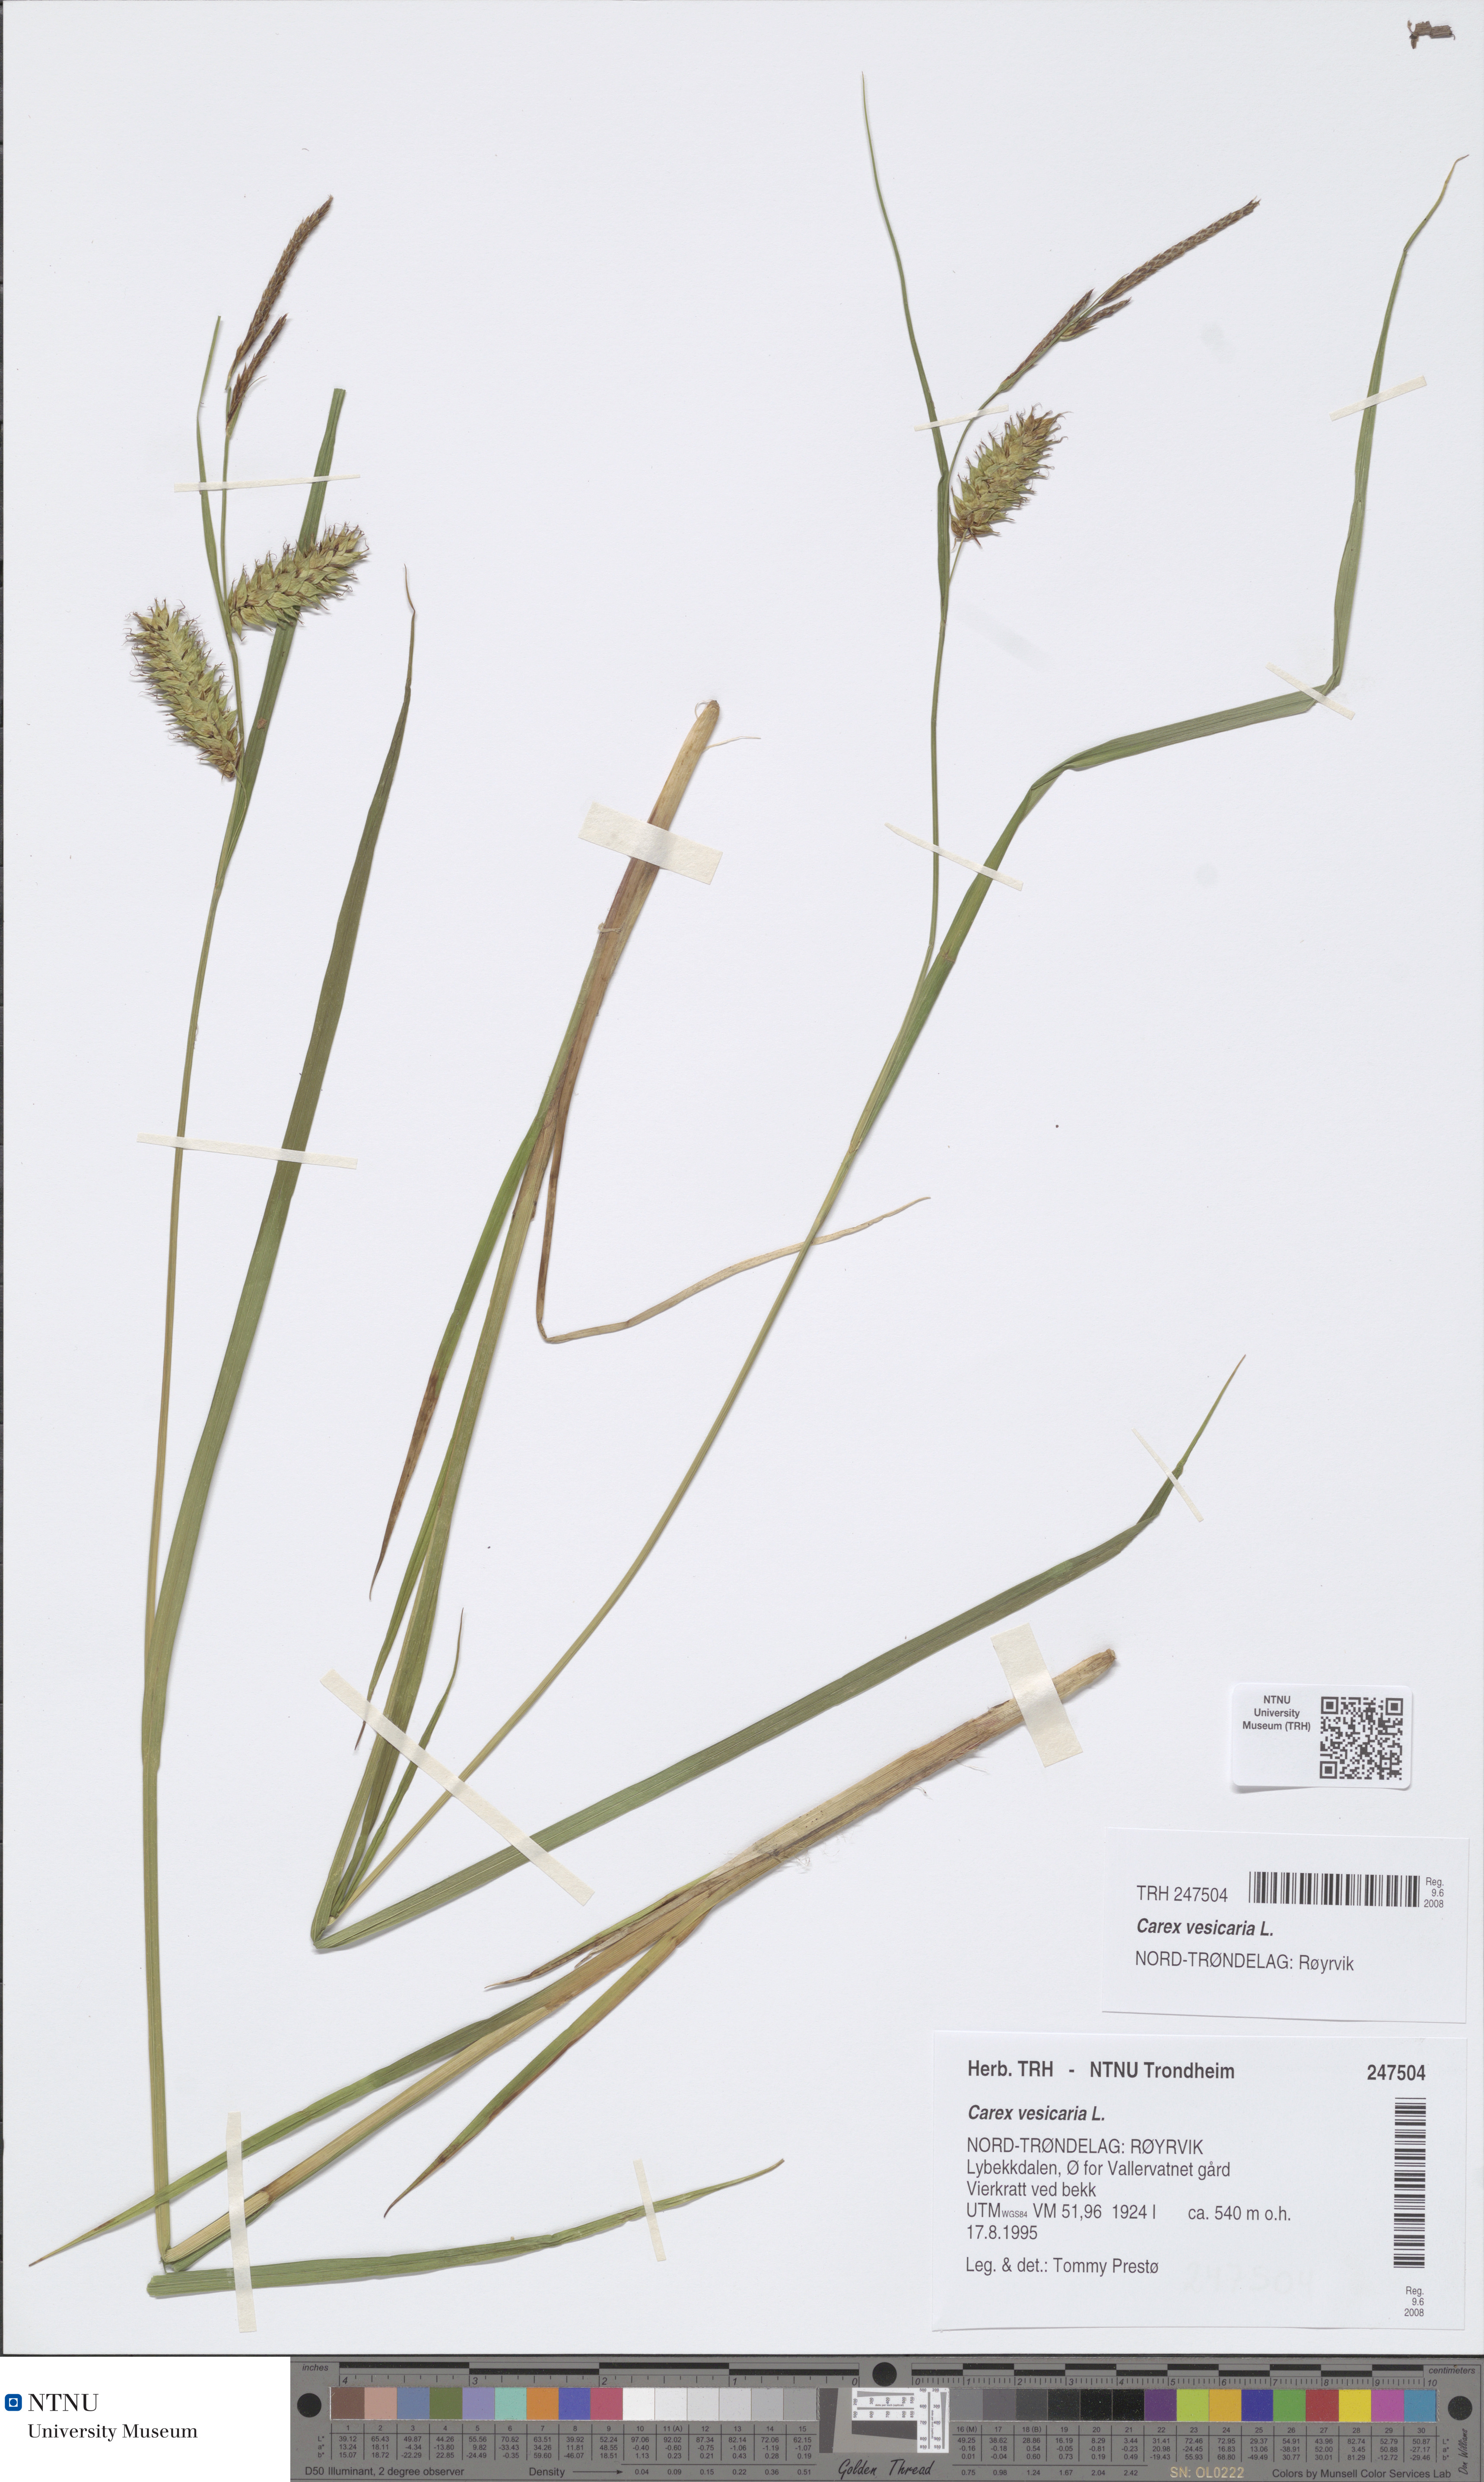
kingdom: Plantae
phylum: Tracheophyta
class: Liliopsida
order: Poales
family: Cyperaceae
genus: Carex
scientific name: Carex vesicaria
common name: Bladder-sedge
